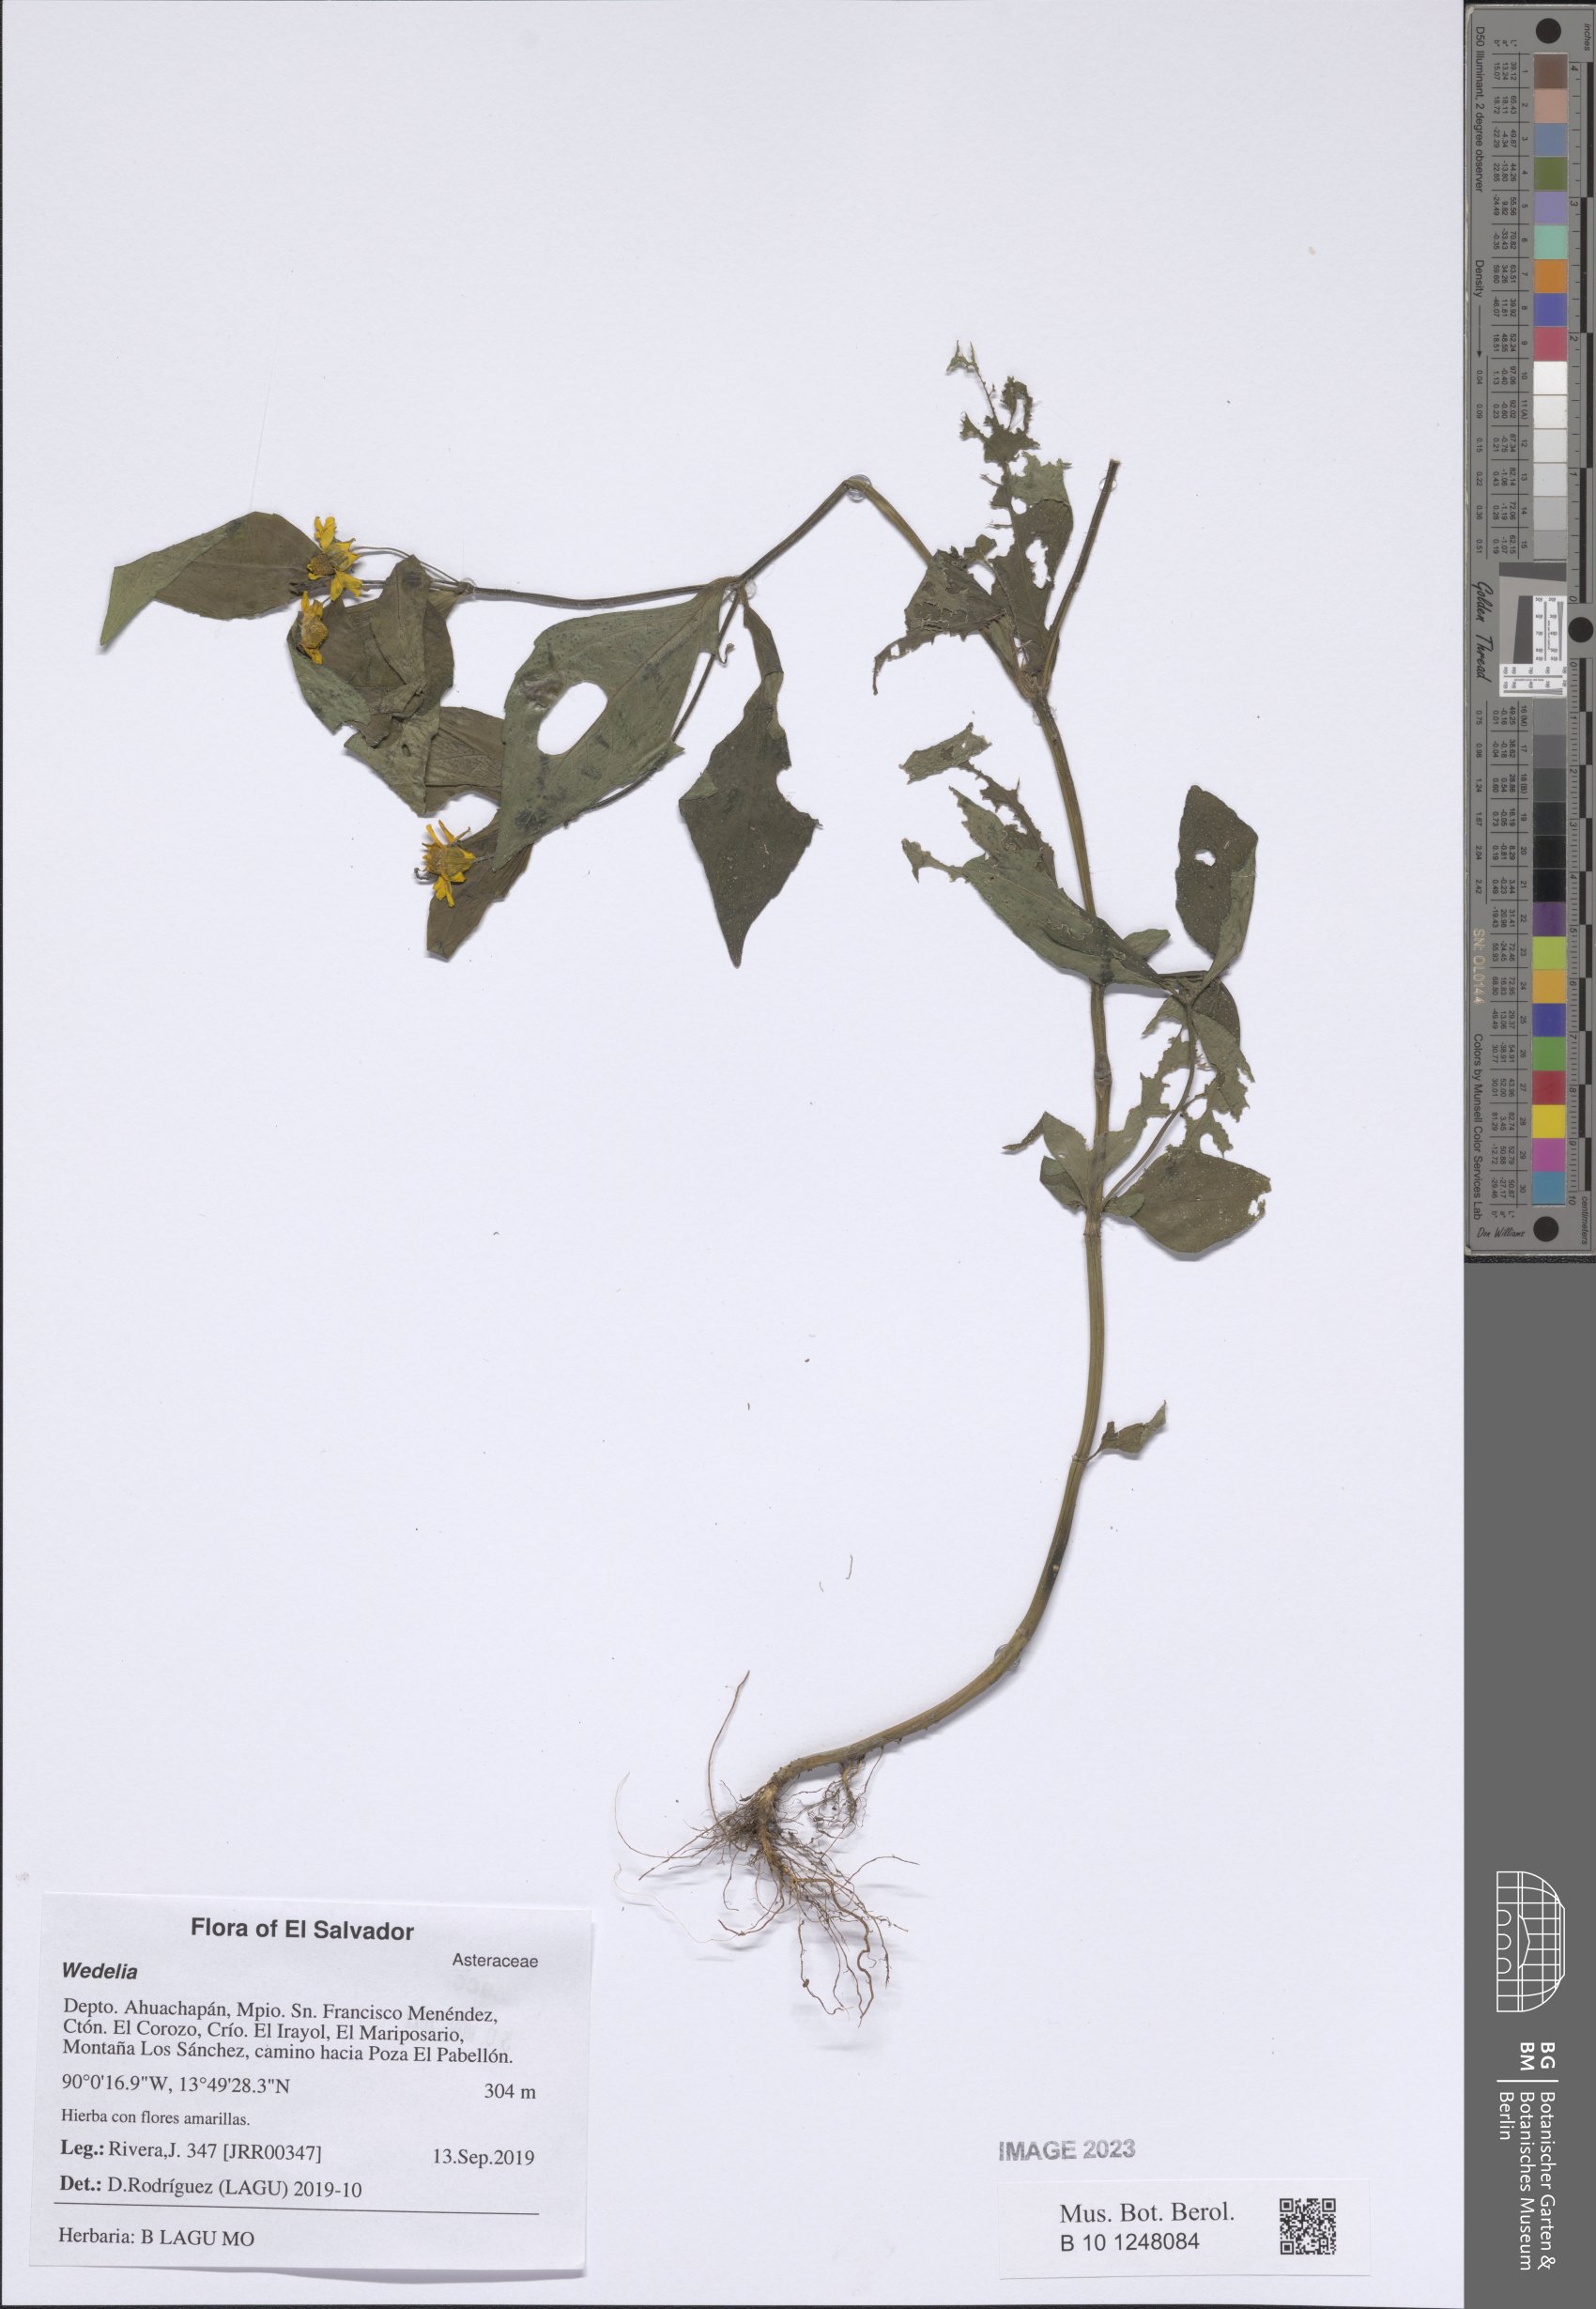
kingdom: Plantae
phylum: Tracheophyta
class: Magnoliopsida
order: Asterales
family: Asteraceae
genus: Wedelia
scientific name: Wedelia
